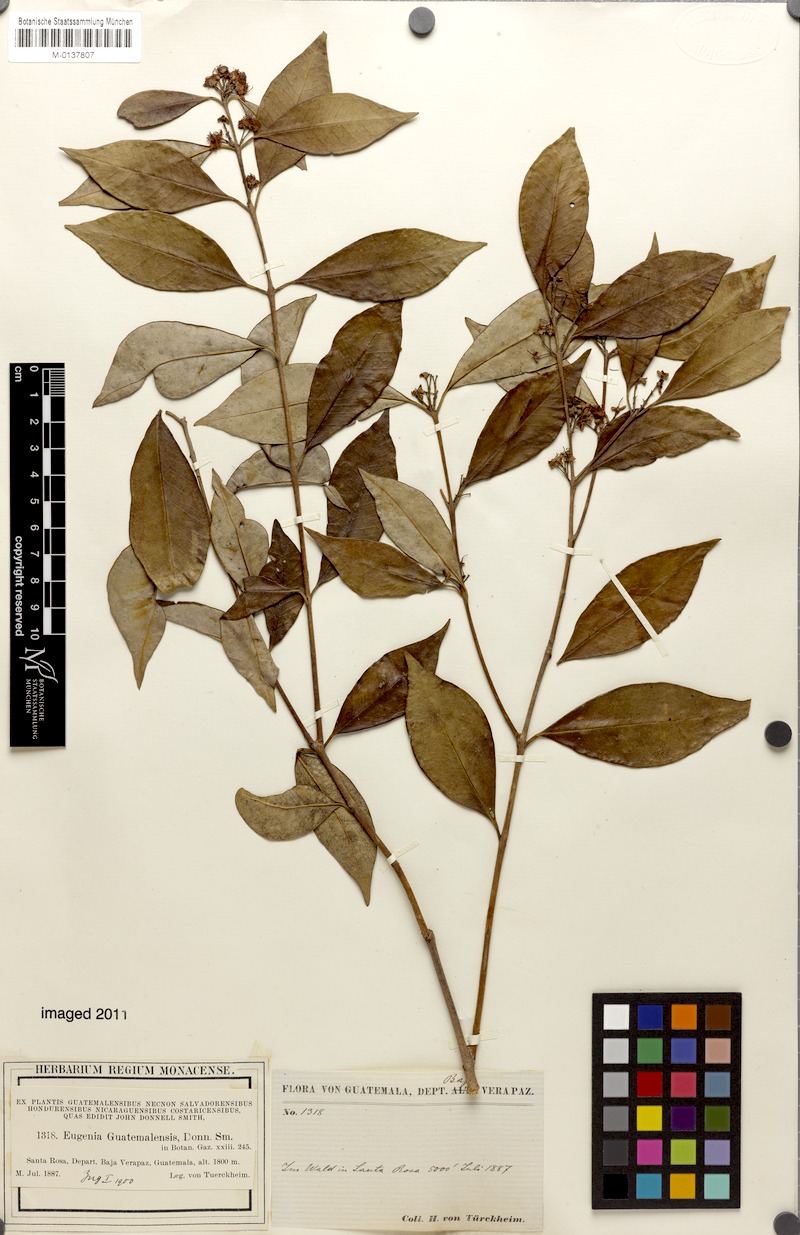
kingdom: Plantae
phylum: Tracheophyta
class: Magnoliopsida
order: Myrtales
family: Myrtaceae
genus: Eugenia
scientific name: Eugenia guatemalensis
